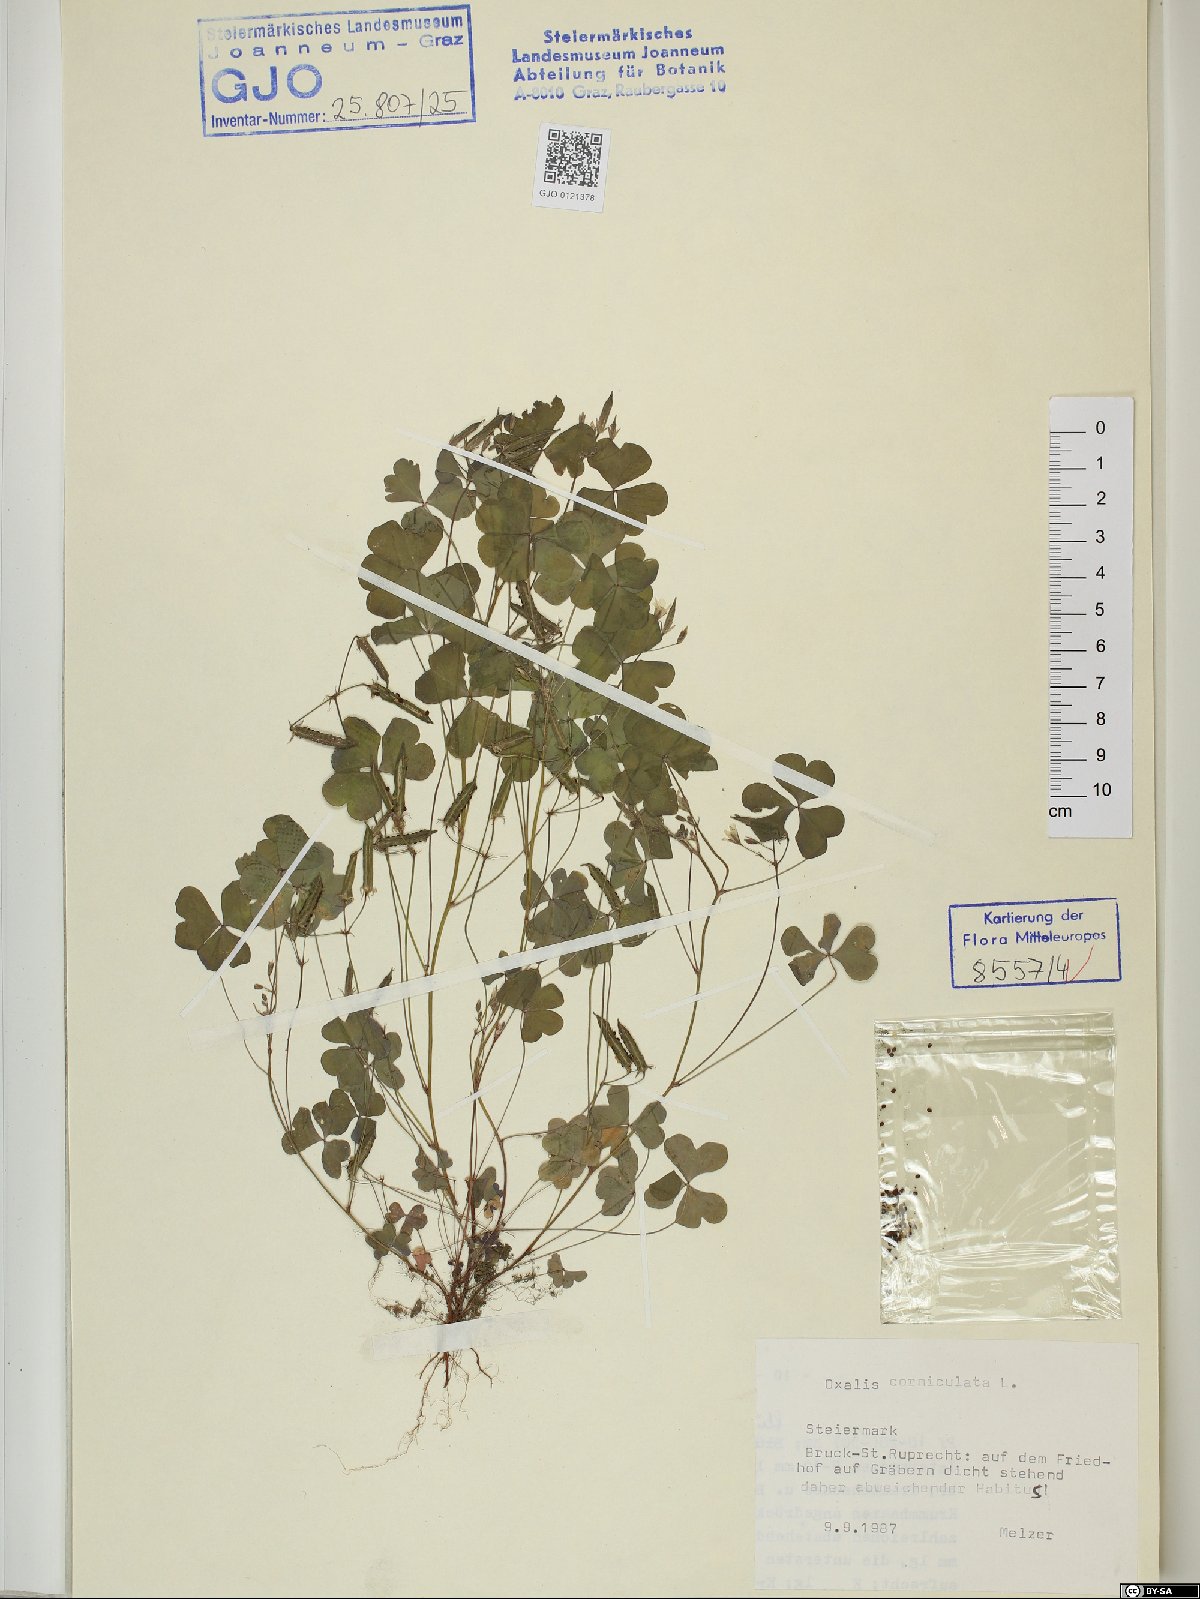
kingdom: Plantae
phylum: Tracheophyta
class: Magnoliopsida
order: Oxalidales
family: Oxalidaceae
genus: Oxalis
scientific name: Oxalis corniculata
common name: Procumbent yellow-sorrel
